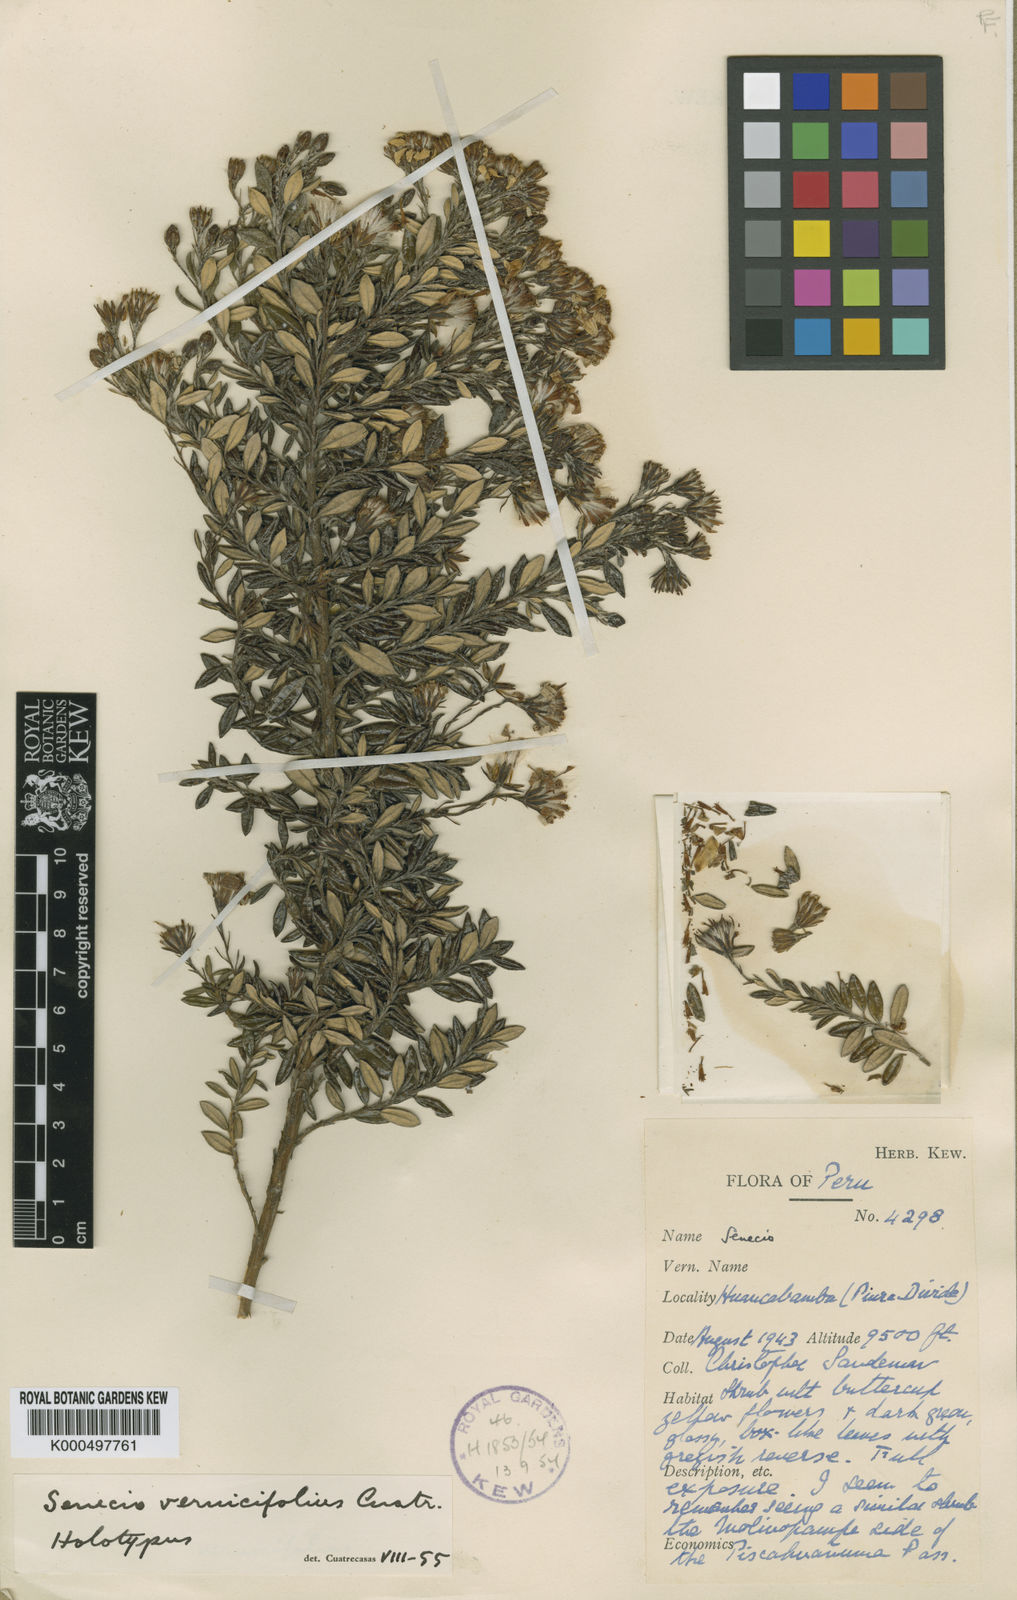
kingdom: Plantae
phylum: Tracheophyta
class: Magnoliopsida
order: Asterales
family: Asteraceae
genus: Monticalia
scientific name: Monticalia vernicifolia
